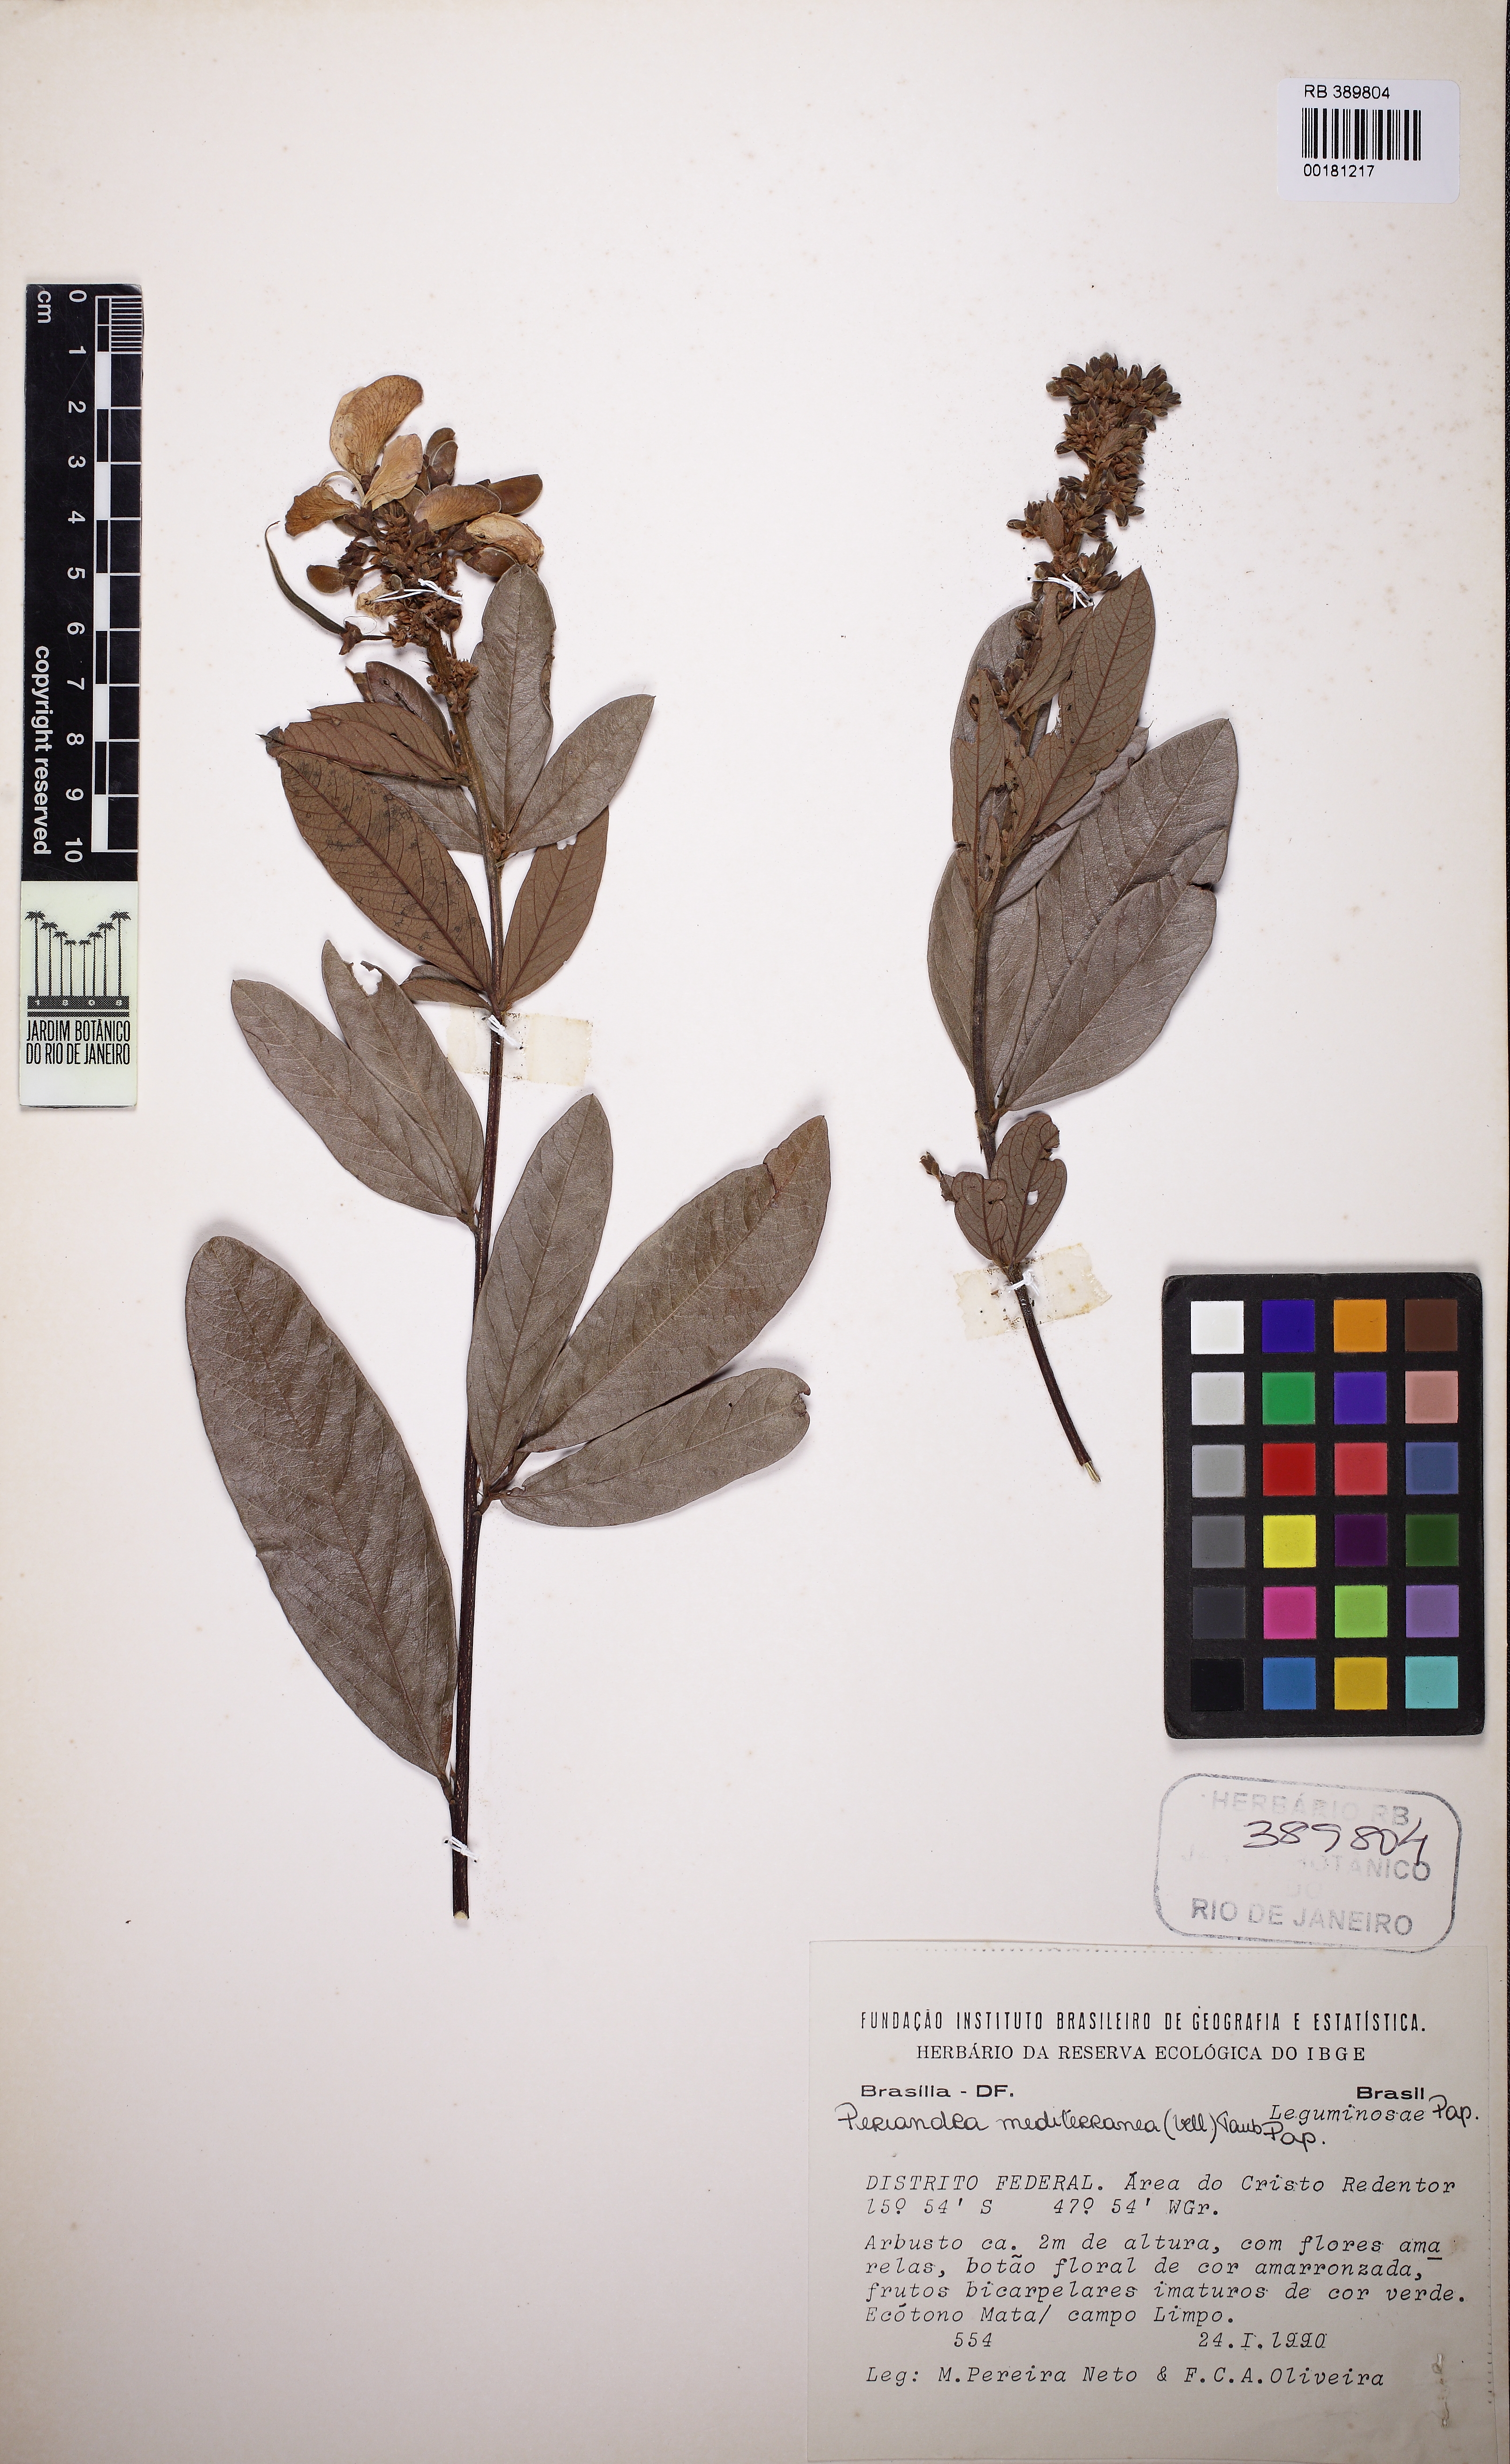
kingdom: Plantae
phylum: Tracheophyta
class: Magnoliopsida
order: Fabales
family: Fabaceae
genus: Periandra
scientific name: Periandra mediterranea
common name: Brazilian licorice
